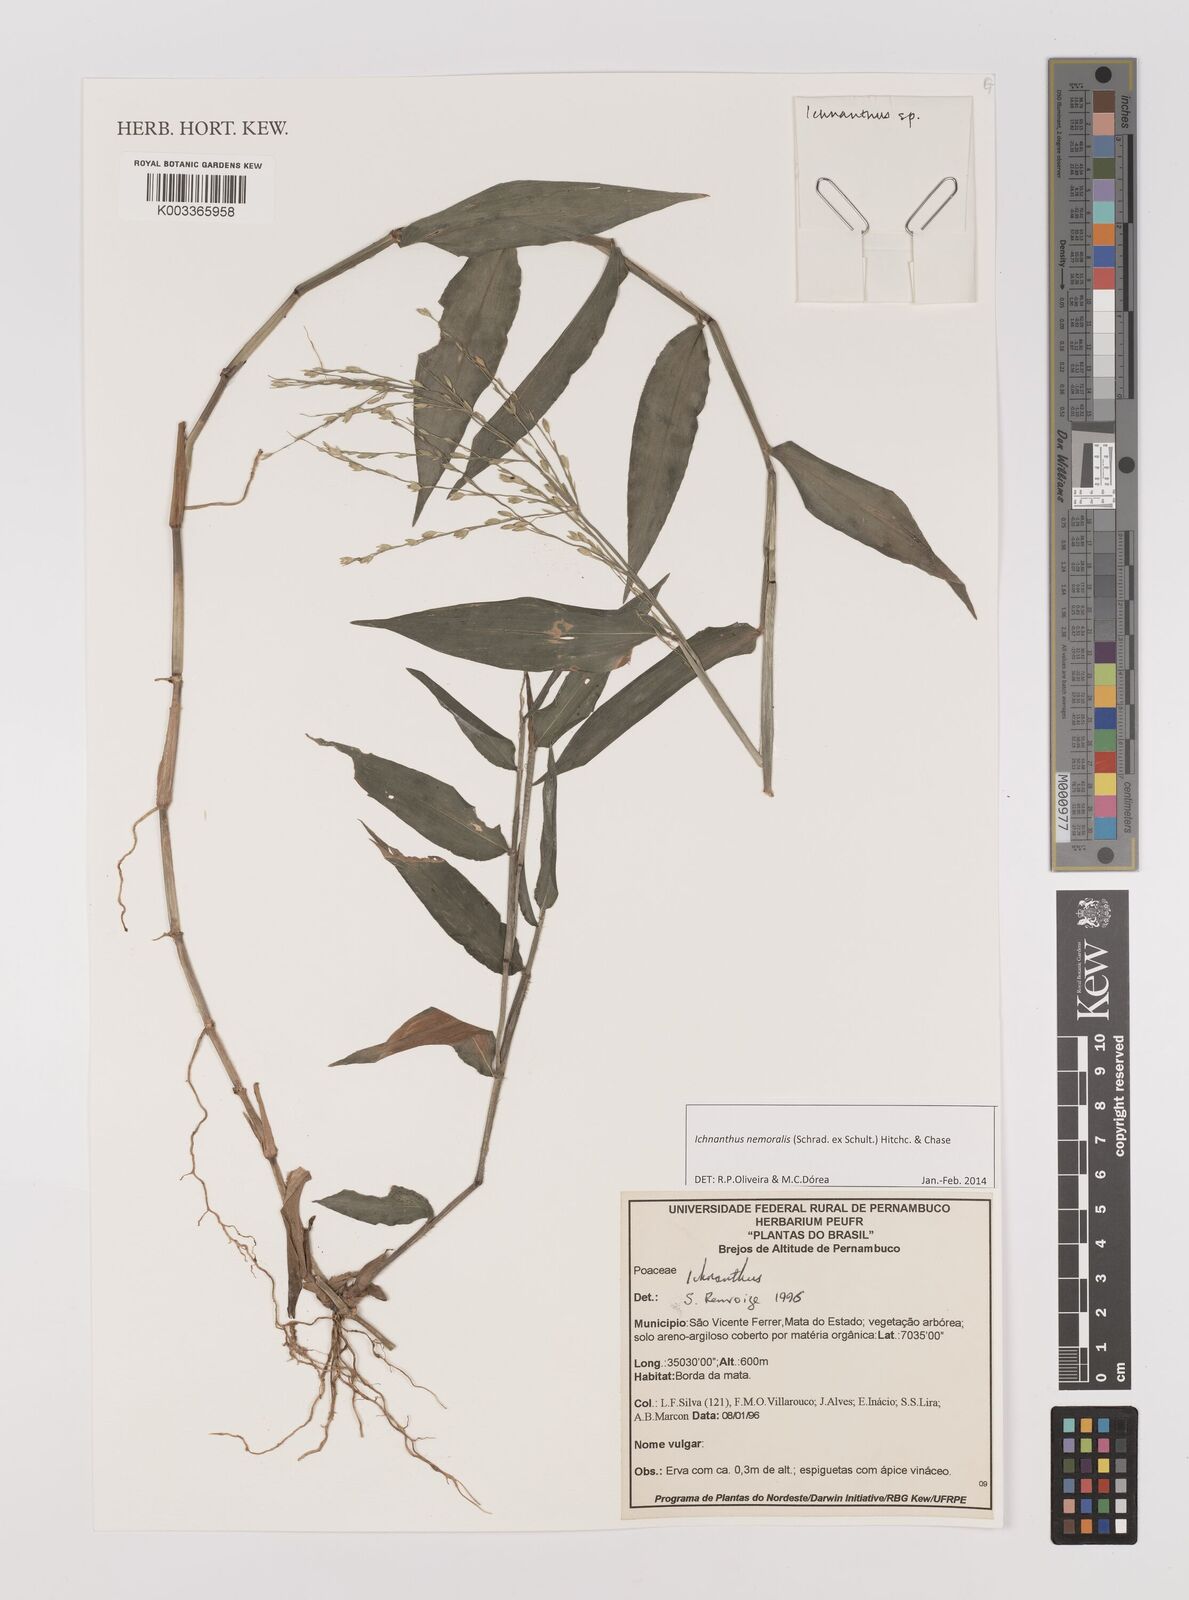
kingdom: Plantae
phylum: Tracheophyta
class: Liliopsida
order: Poales
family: Poaceae
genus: Ichnanthus
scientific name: Ichnanthus nemoralis
